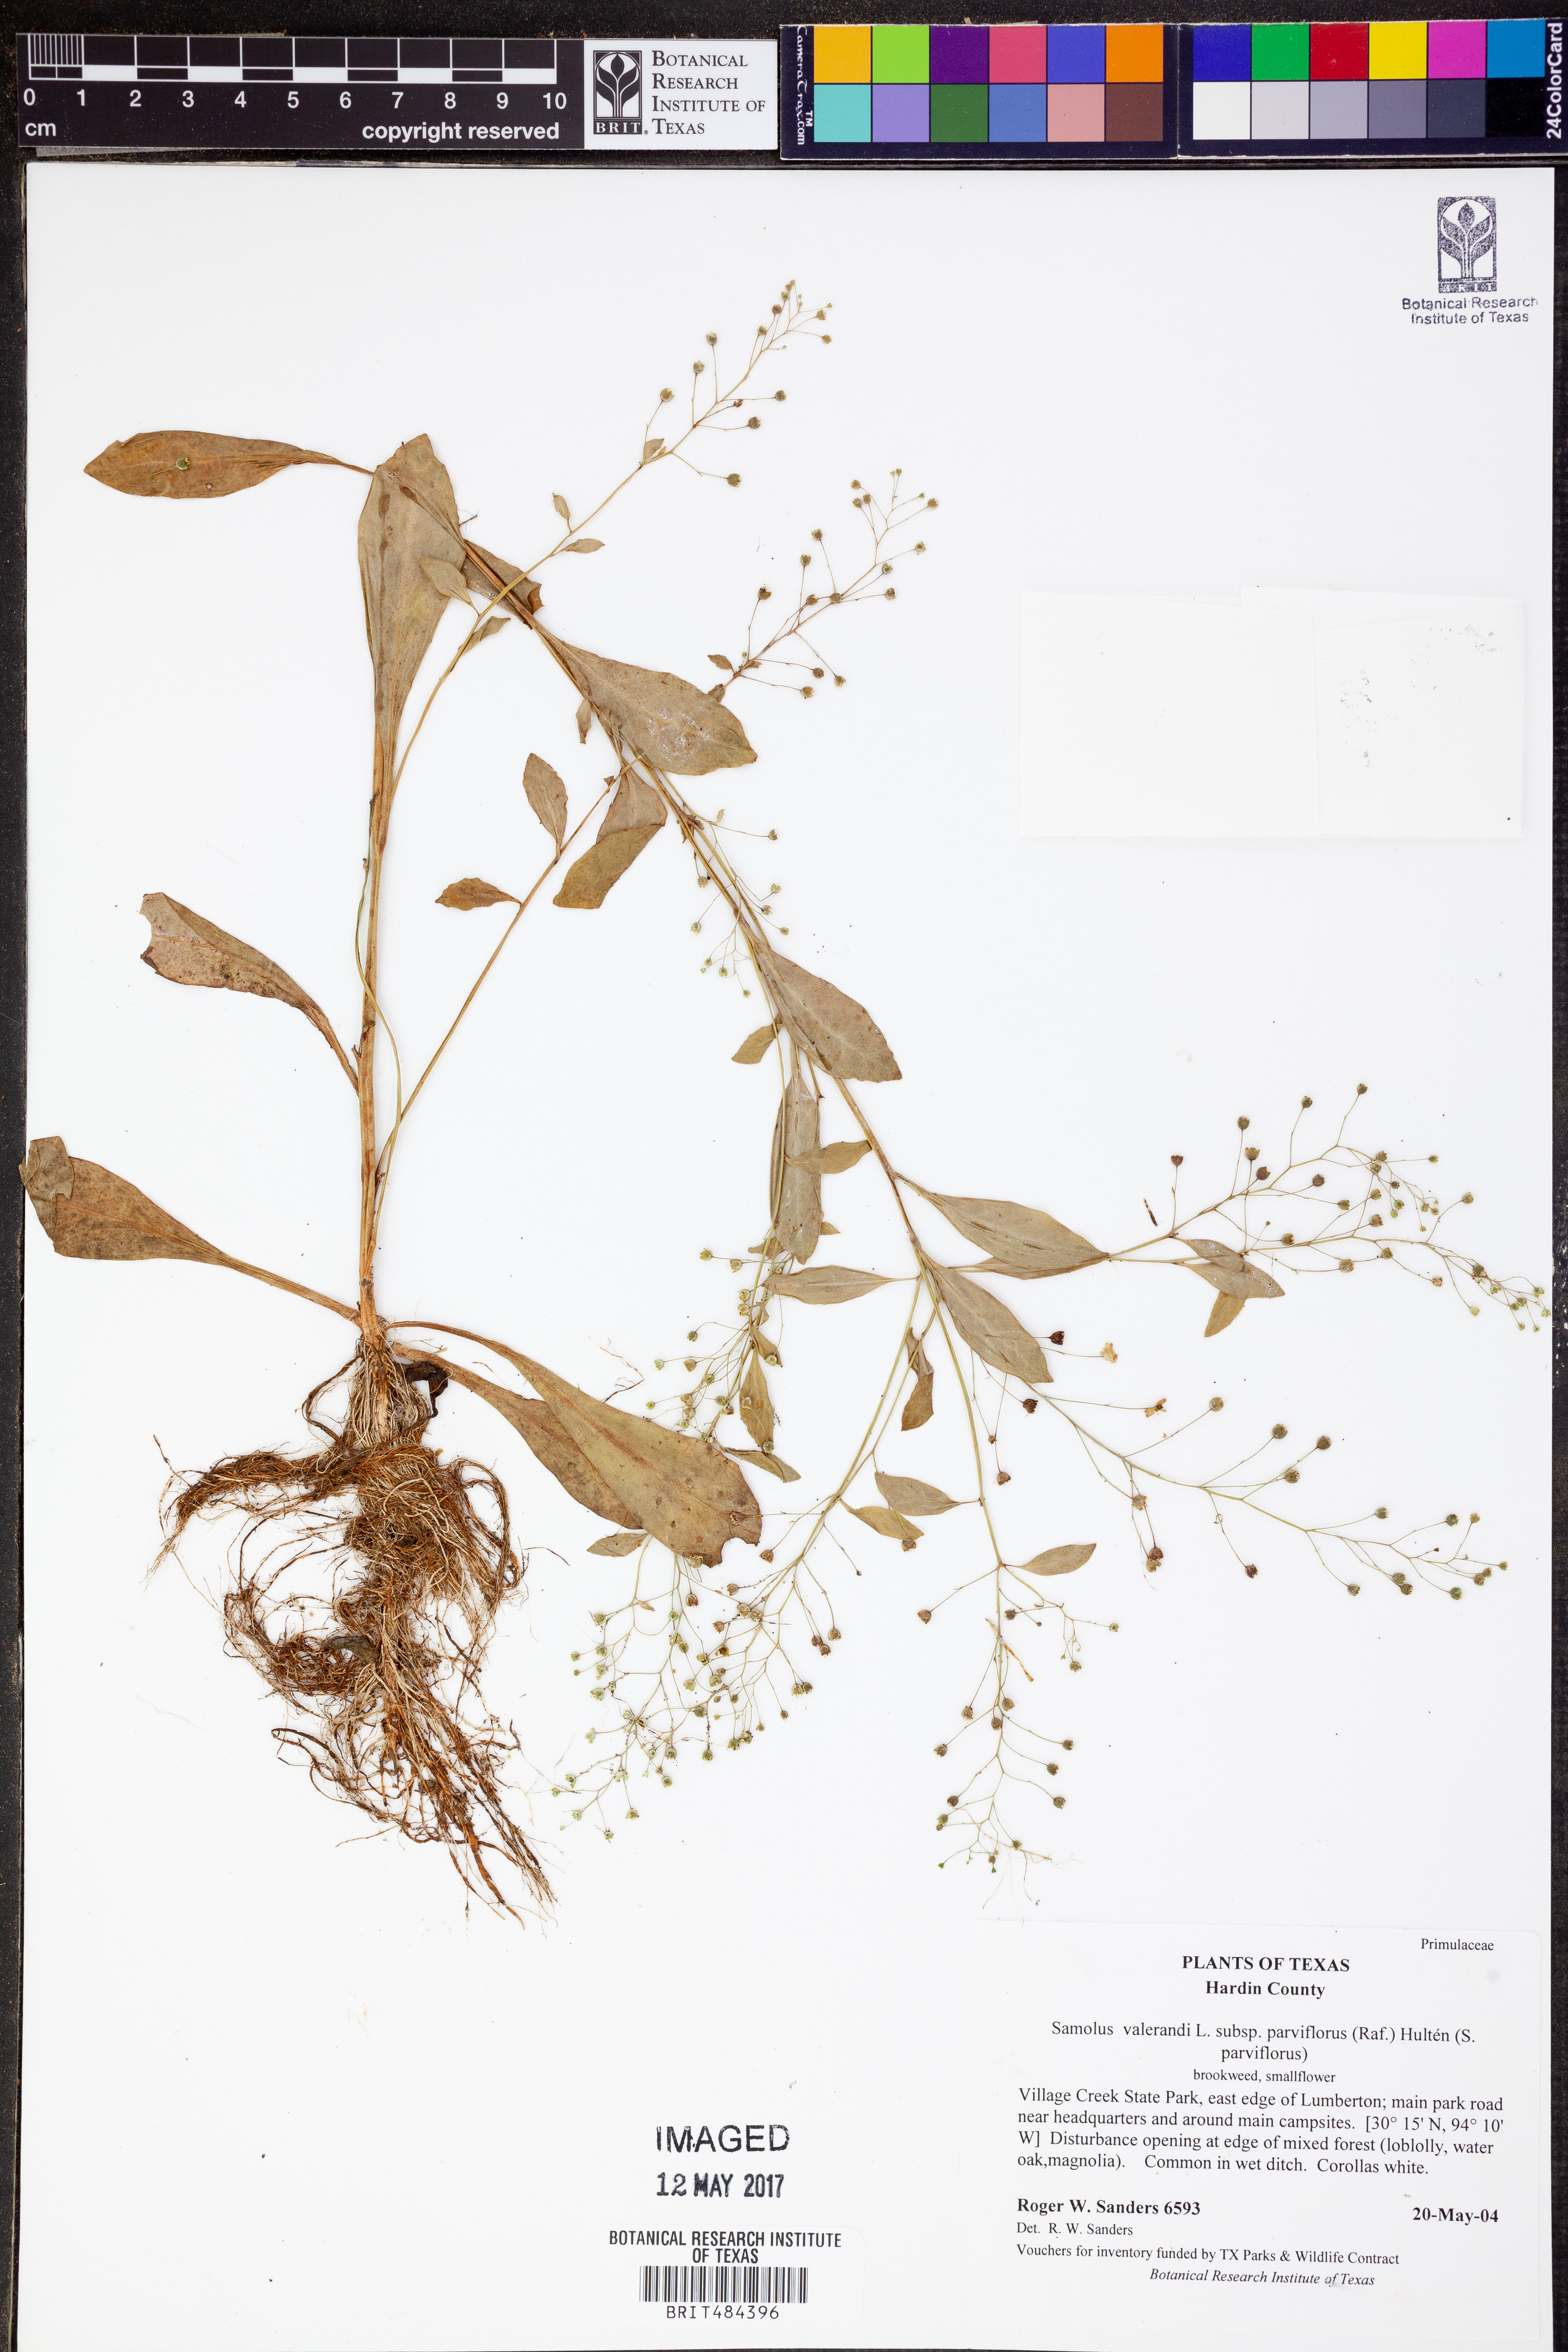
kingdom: Plantae
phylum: Tracheophyta
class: Magnoliopsida
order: Ericales
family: Primulaceae
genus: Samolus
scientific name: Samolus parviflorus
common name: False water pimpernel
